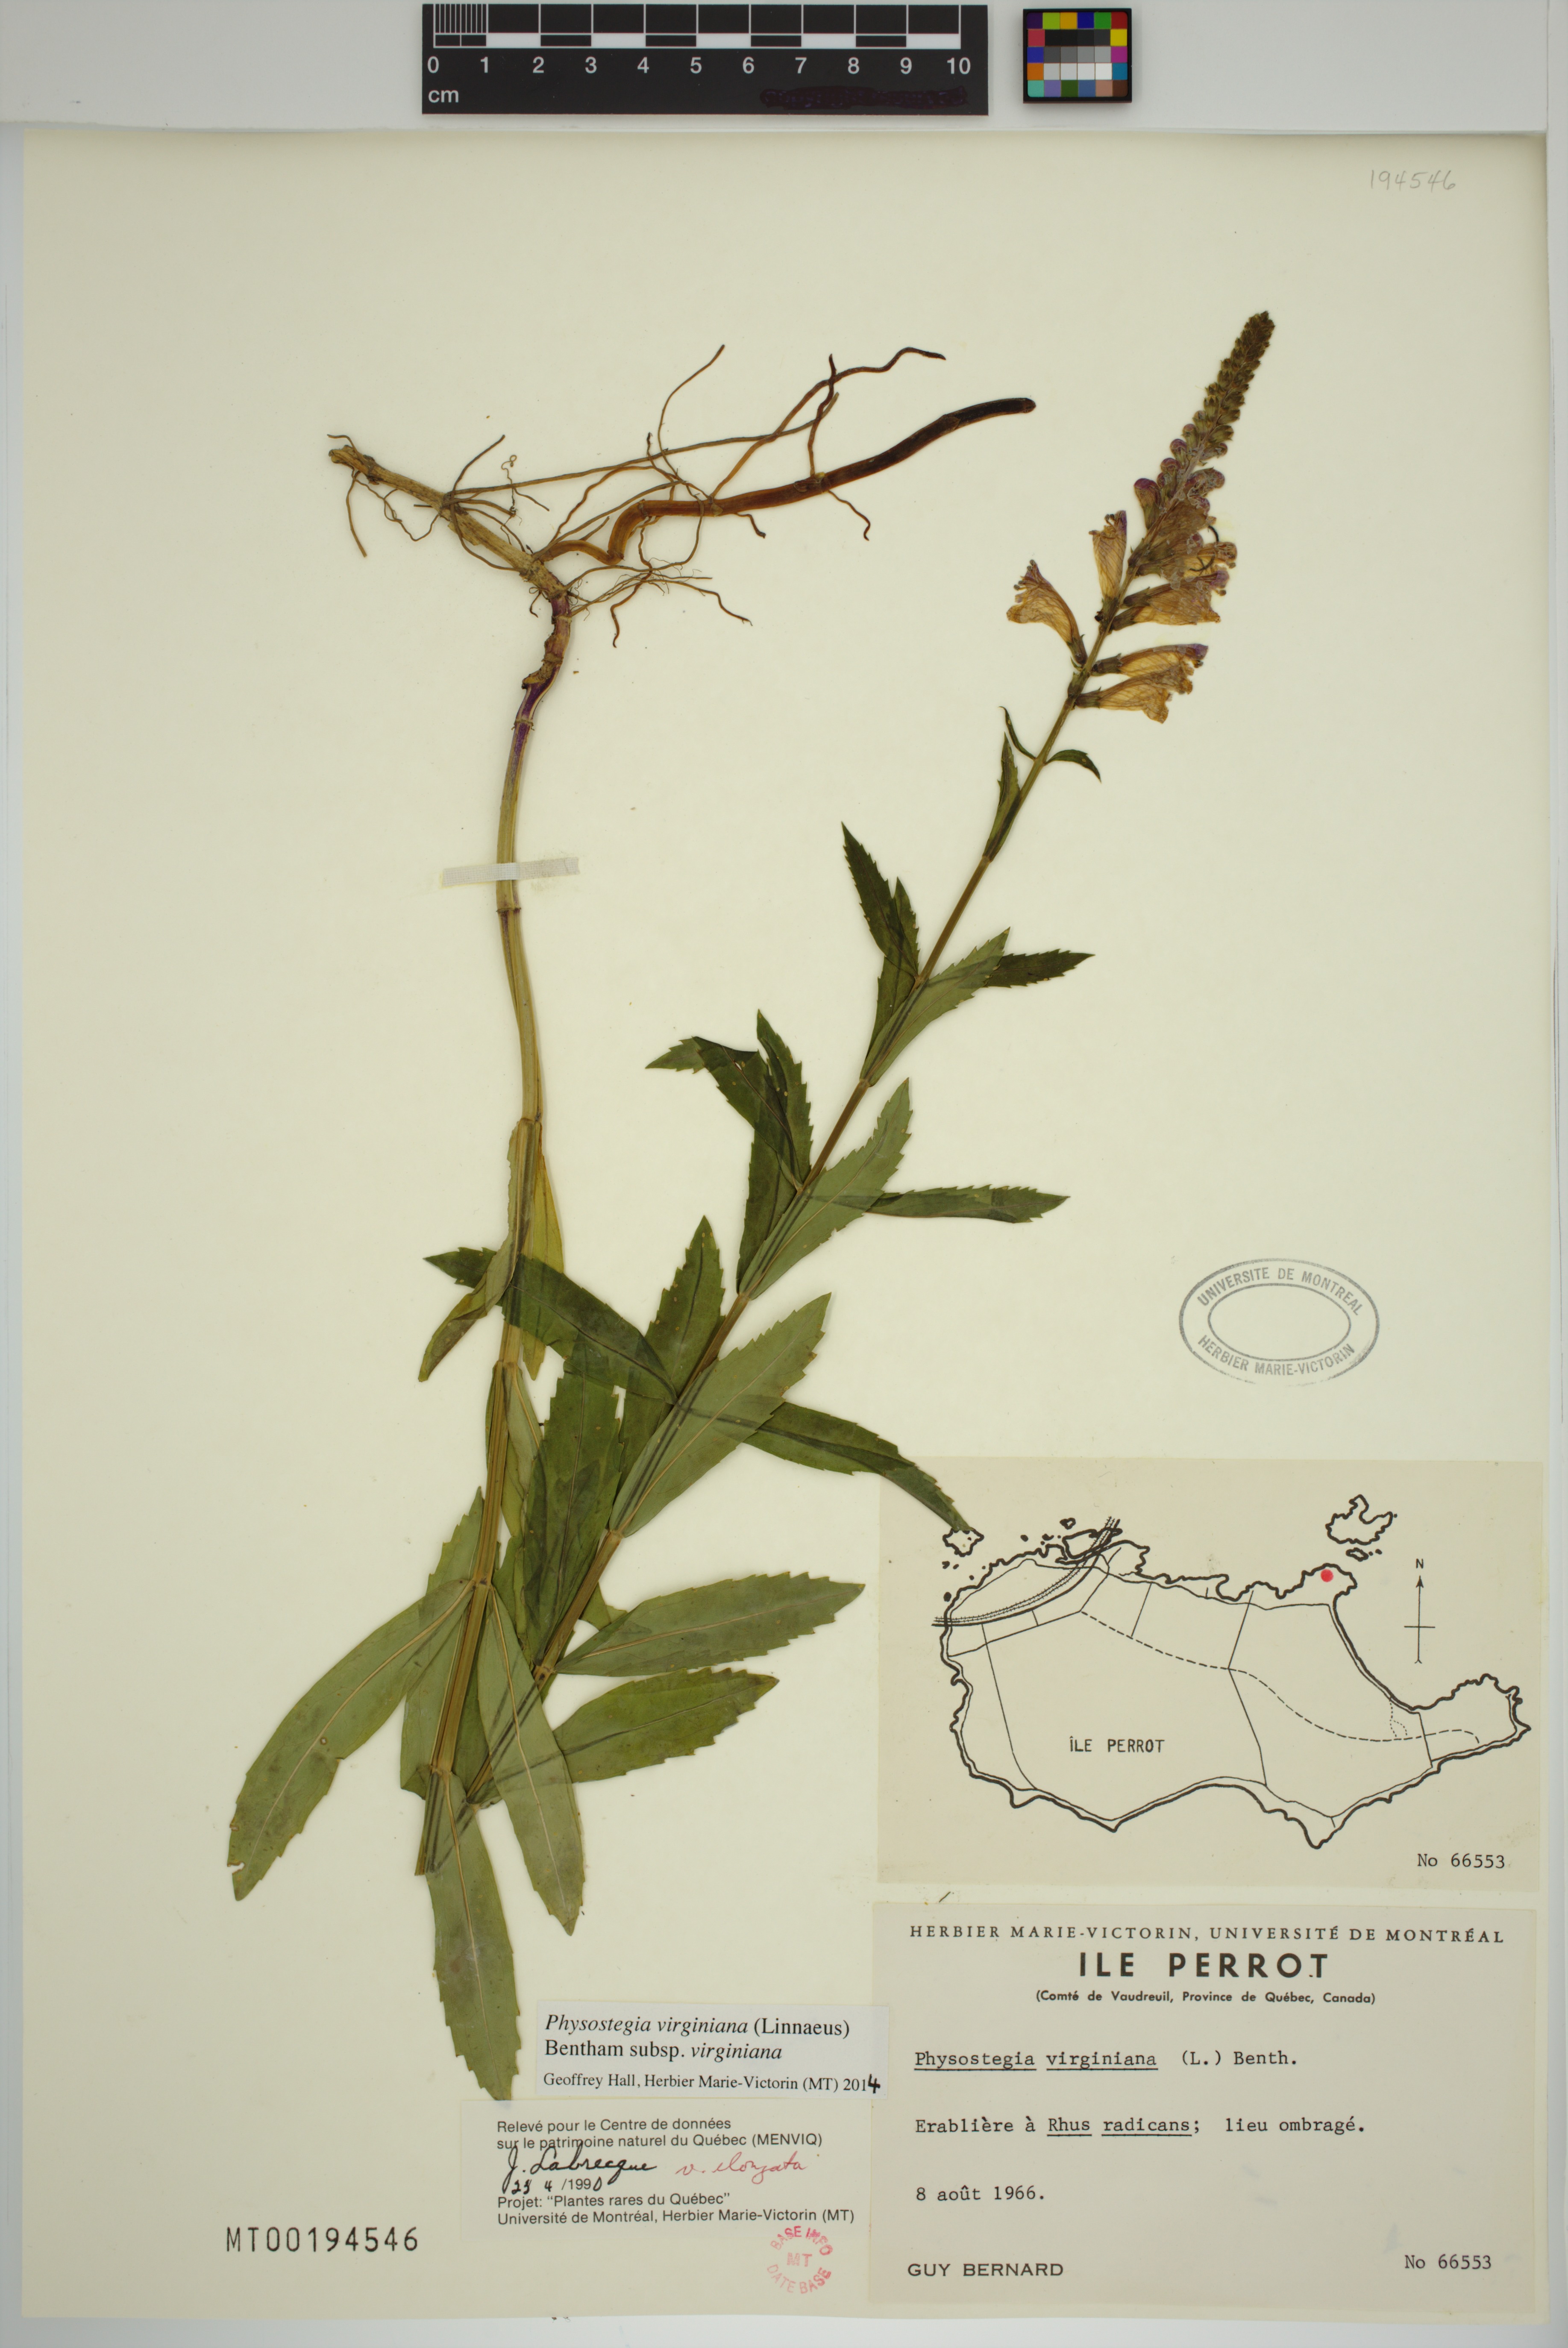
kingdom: Plantae
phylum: Tracheophyta
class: Magnoliopsida
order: Lamiales
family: Lamiaceae
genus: Physostegia
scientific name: Physostegia virginiana
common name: Obedient-plant
